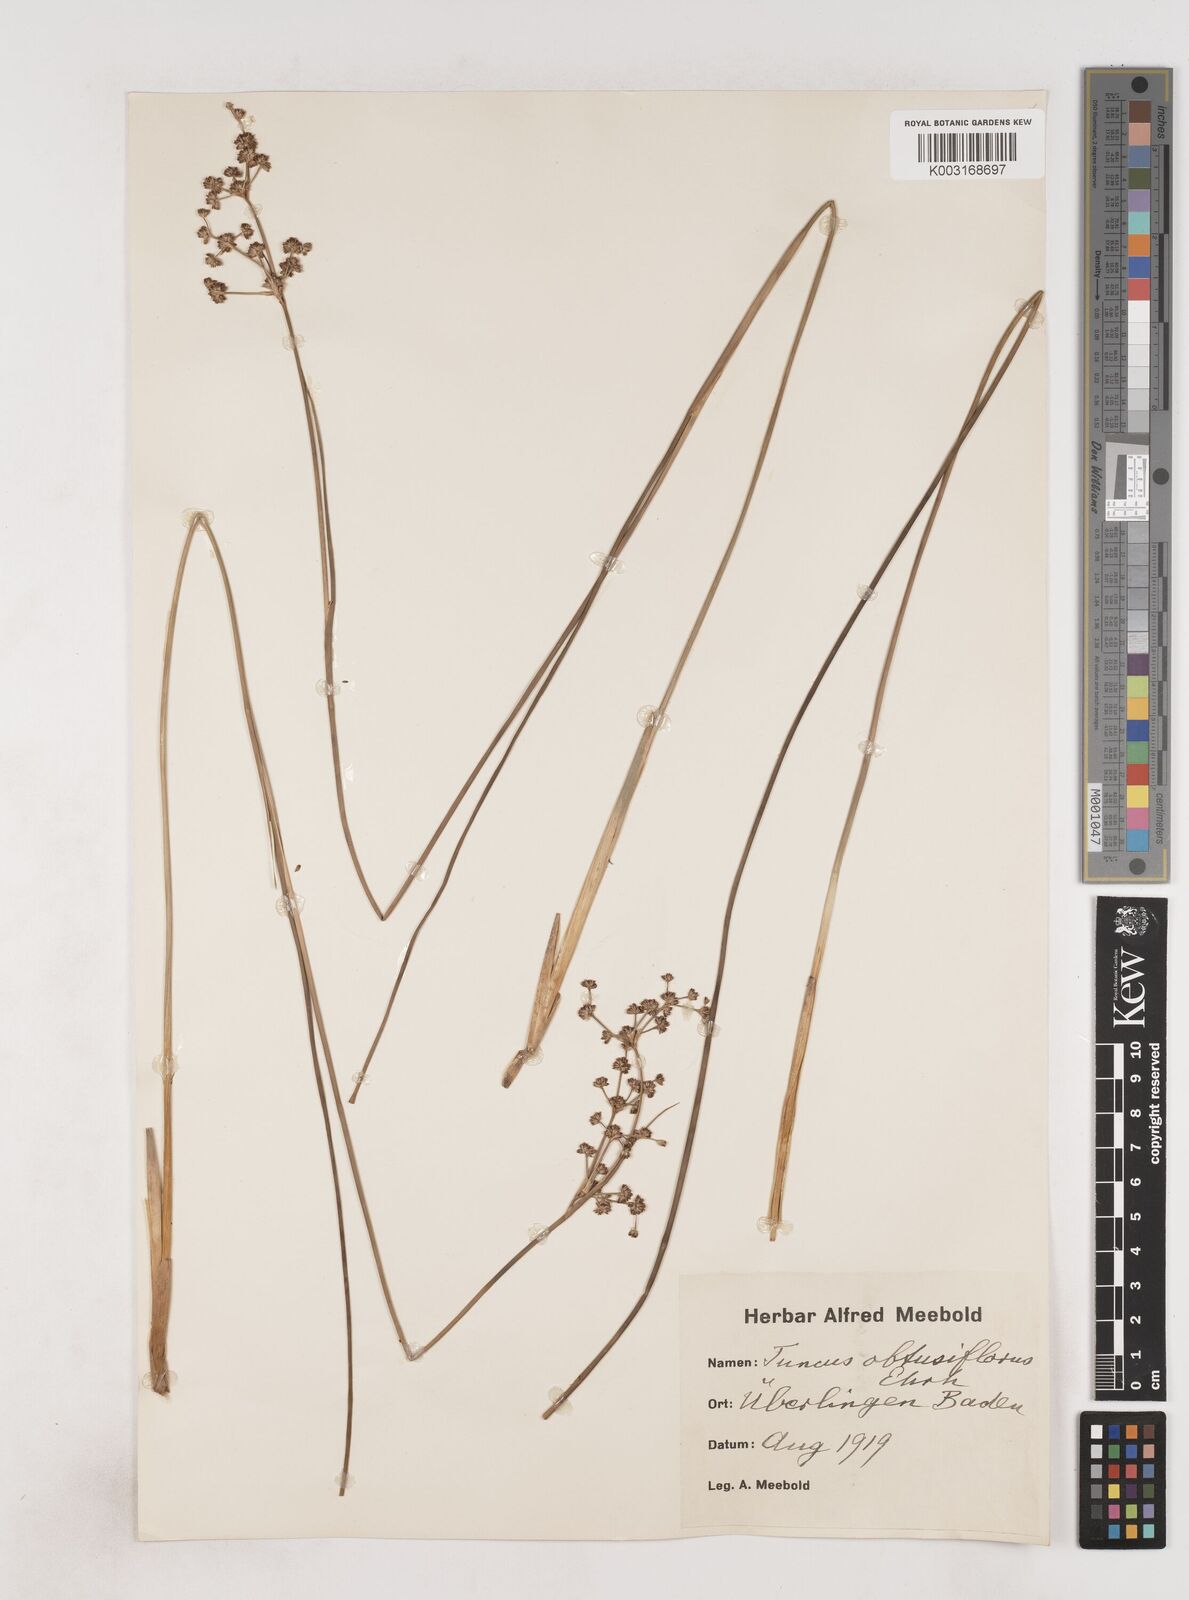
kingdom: Plantae
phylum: Tracheophyta
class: Liliopsida
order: Poales
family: Juncaceae
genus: Juncus
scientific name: Juncus subnodulosus
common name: Blunt-flowered rush
